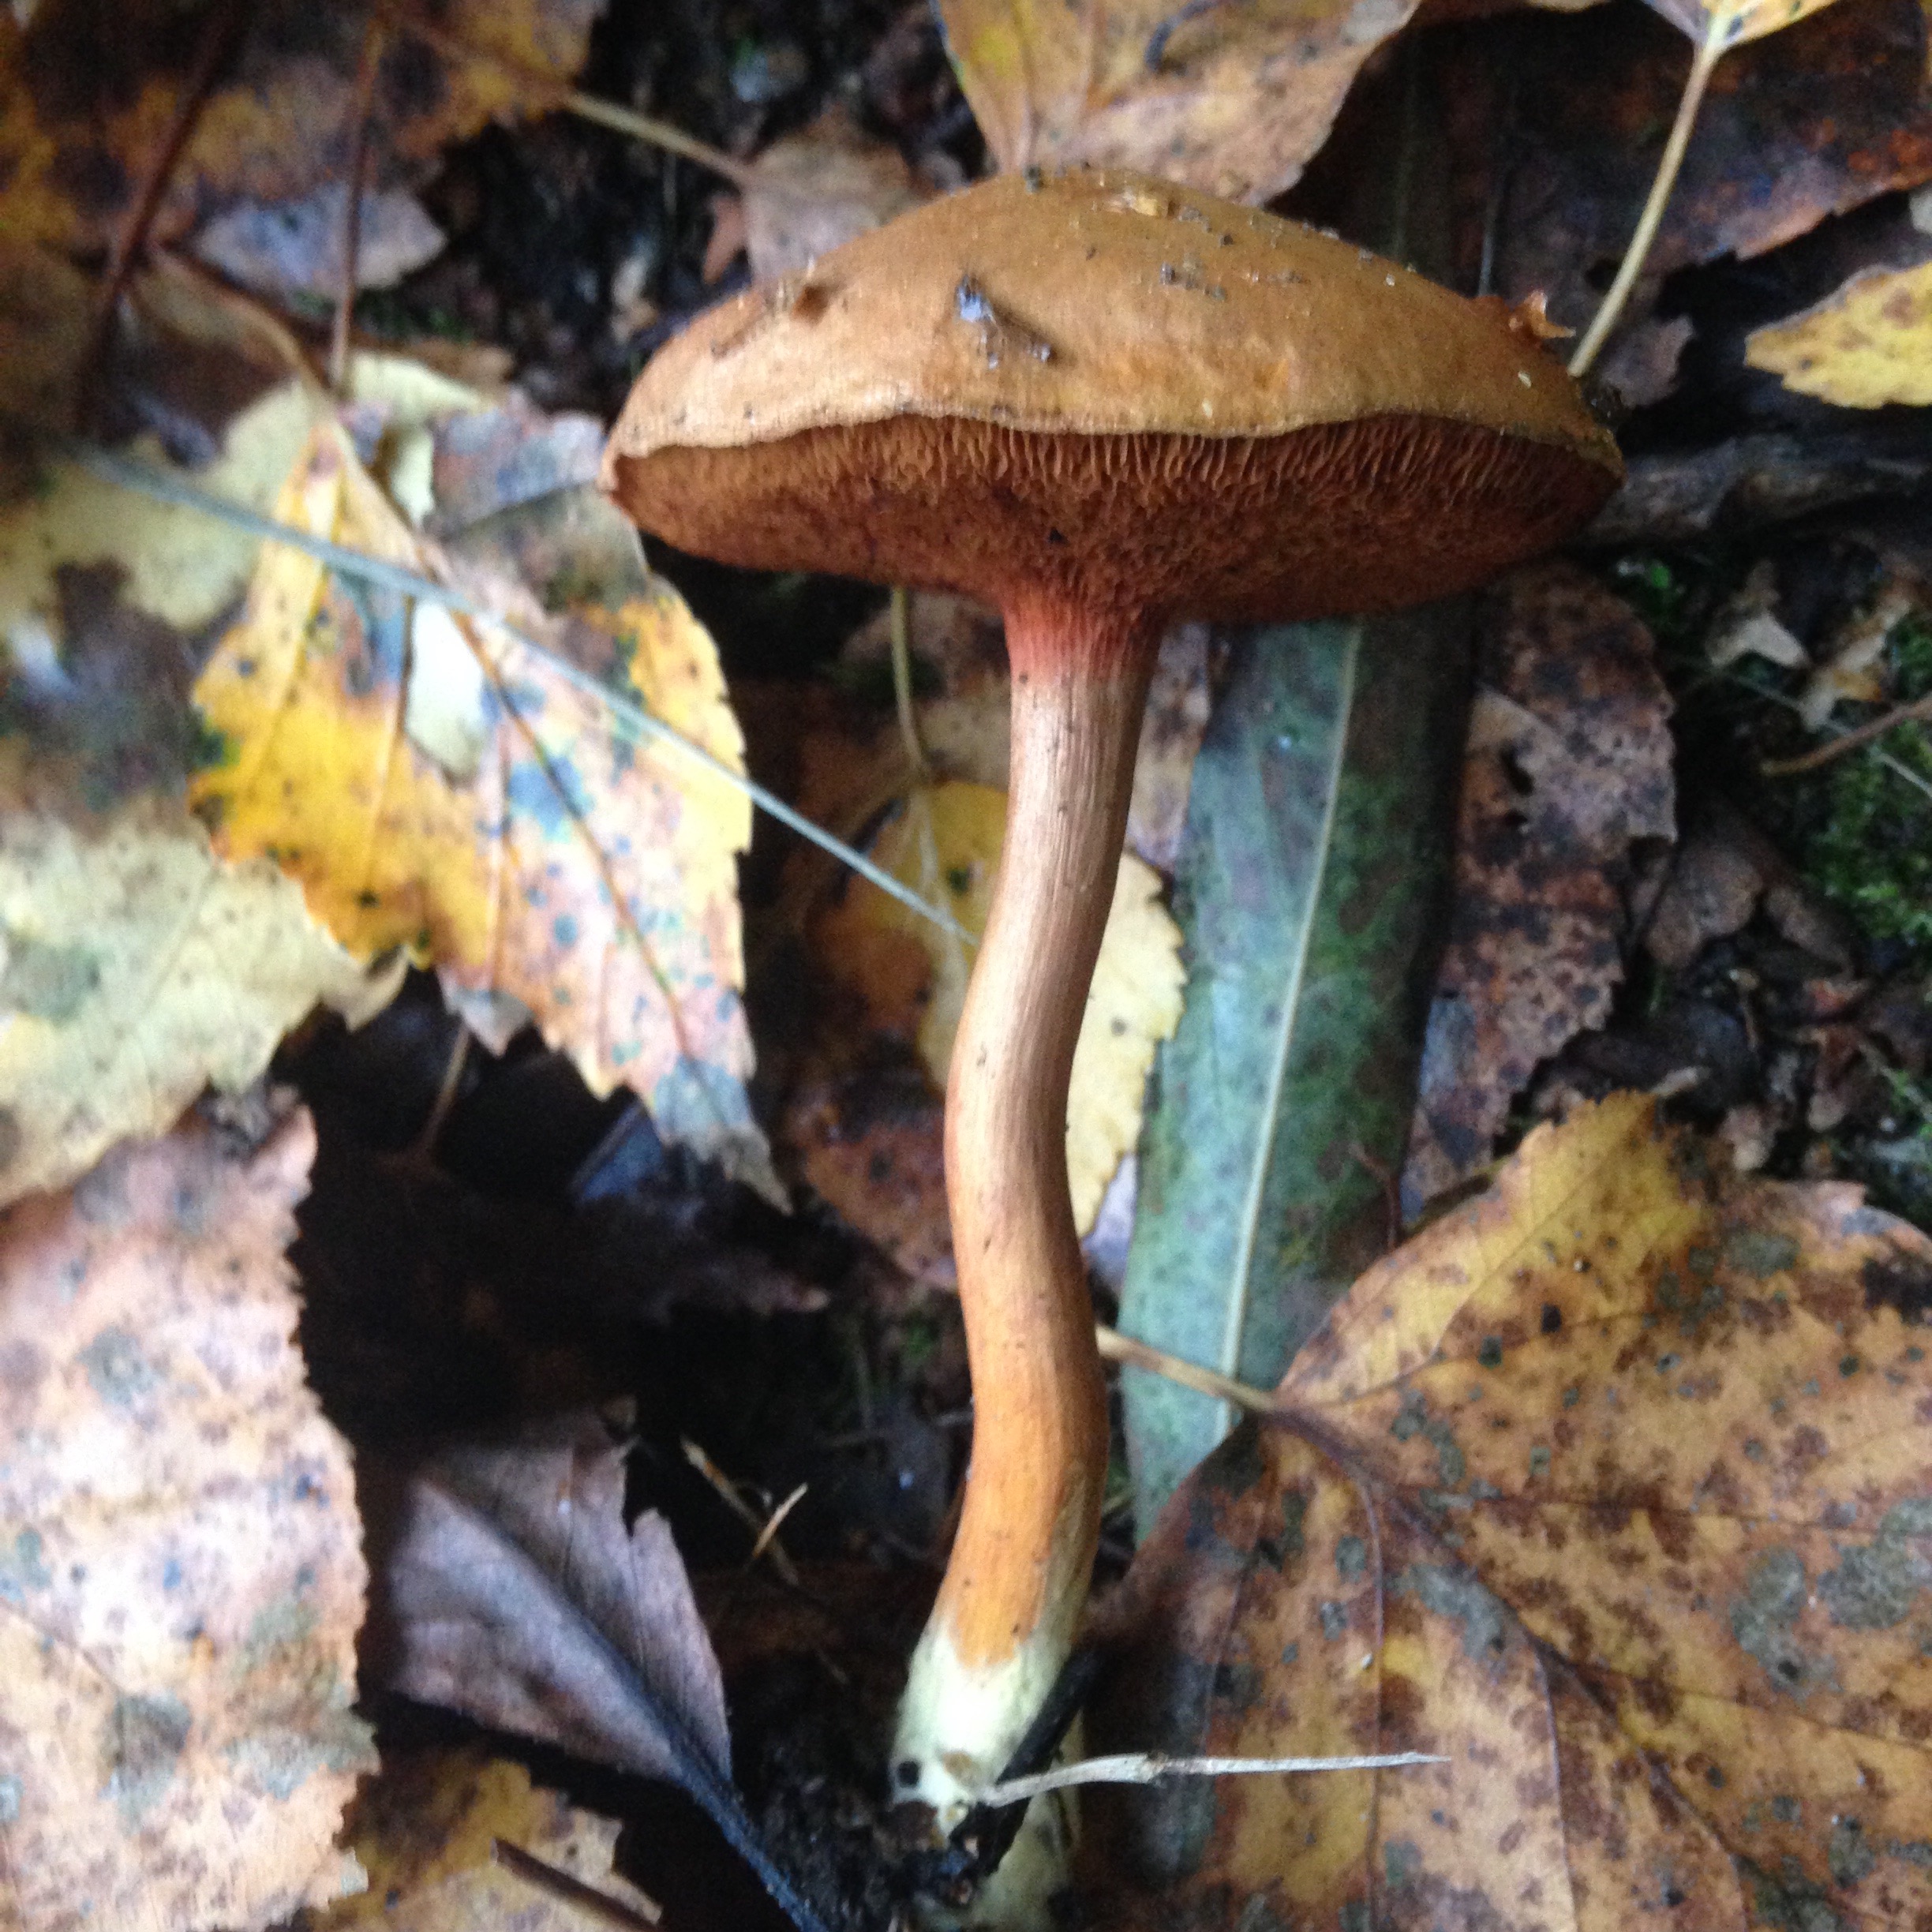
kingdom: Fungi
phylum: Basidiomycota
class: Agaricomycetes
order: Boletales
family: Boletaceae
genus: Chalciporus
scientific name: Chalciporus piperatus
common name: Peppery bolete
